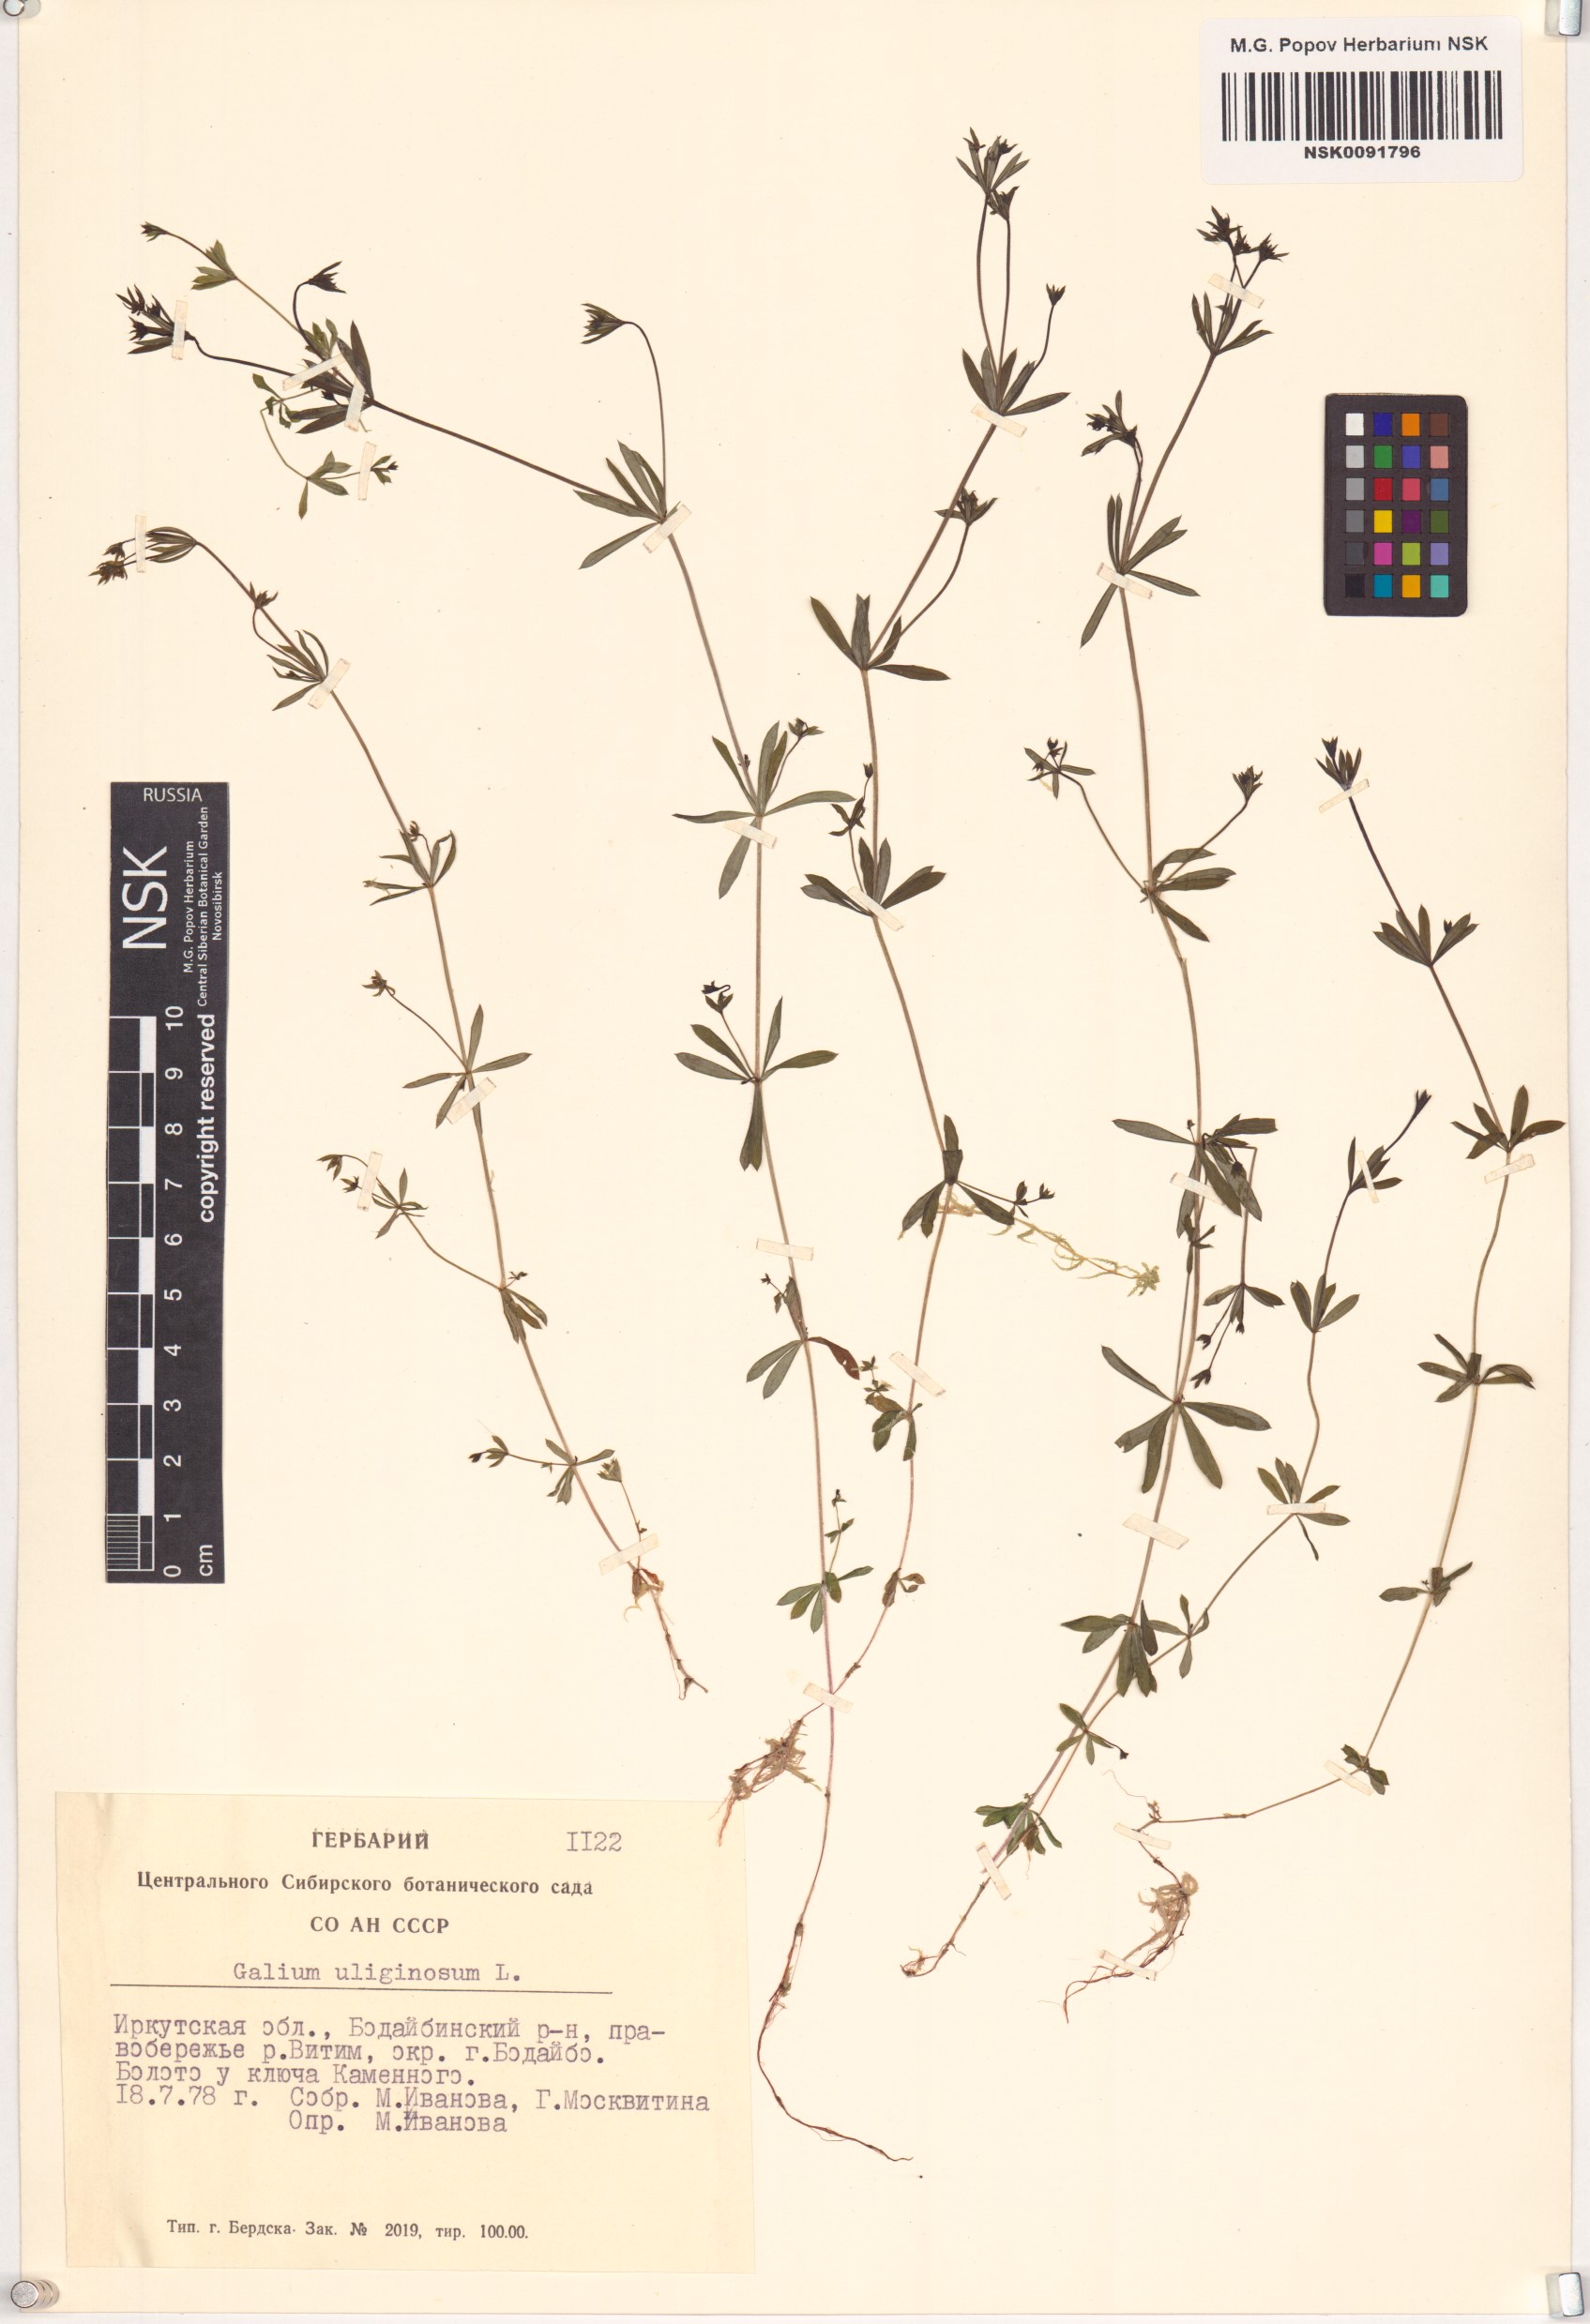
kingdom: Plantae
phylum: Tracheophyta
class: Magnoliopsida
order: Gentianales
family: Rubiaceae
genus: Galium
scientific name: Galium uliginosum
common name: Fen bedstraw
